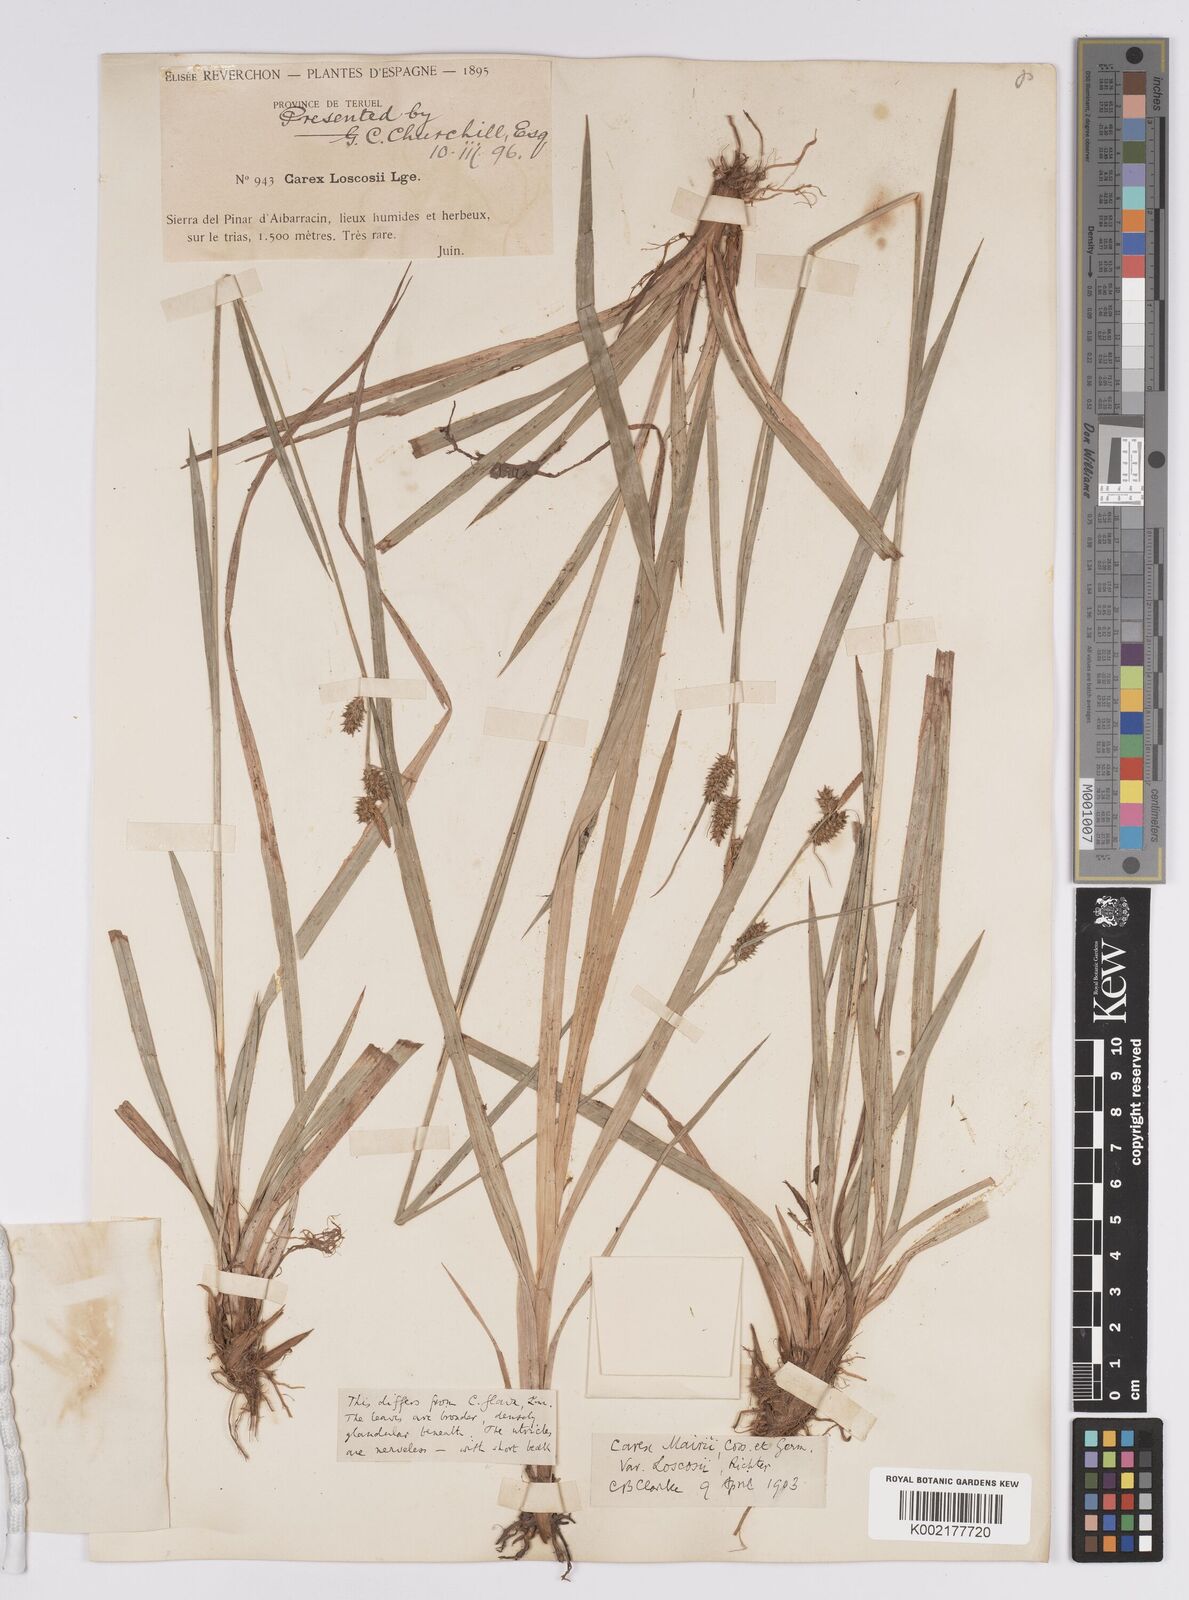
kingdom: Plantae
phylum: Tracheophyta
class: Liliopsida
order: Poales
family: Cyperaceae
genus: Carex
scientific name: Carex mairei
